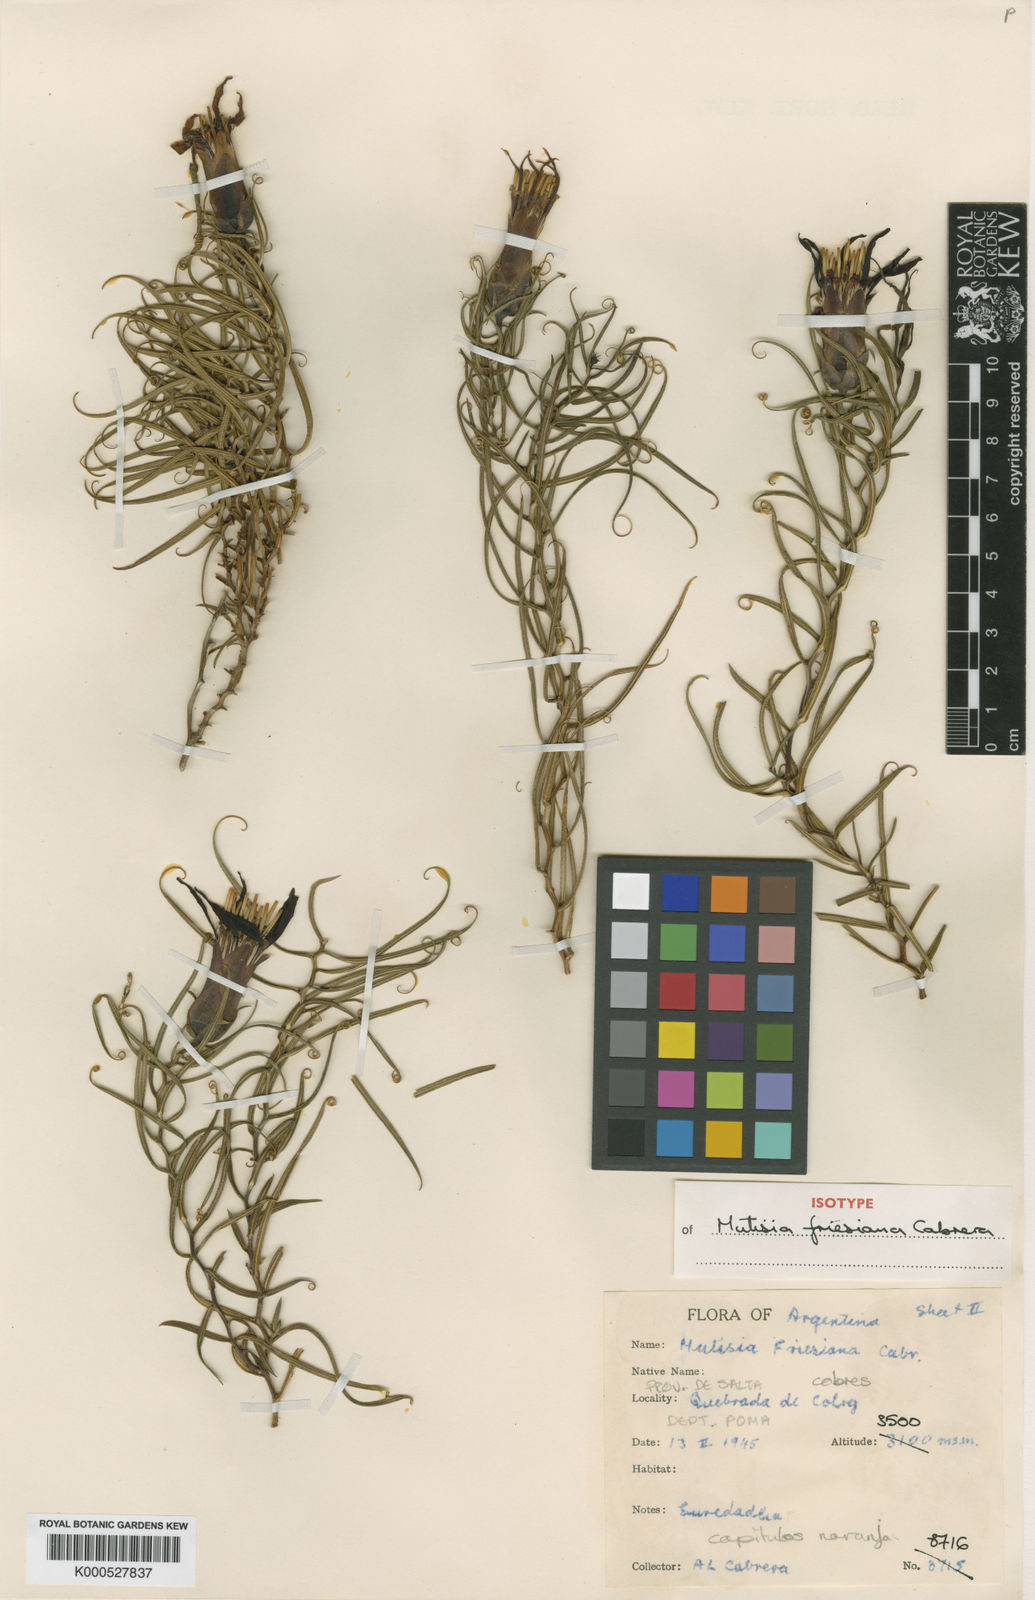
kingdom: Plantae
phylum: Tracheophyta
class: Magnoliopsida
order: Asterales
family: Asteraceae
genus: Mutisia
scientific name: Mutisia friesiana
